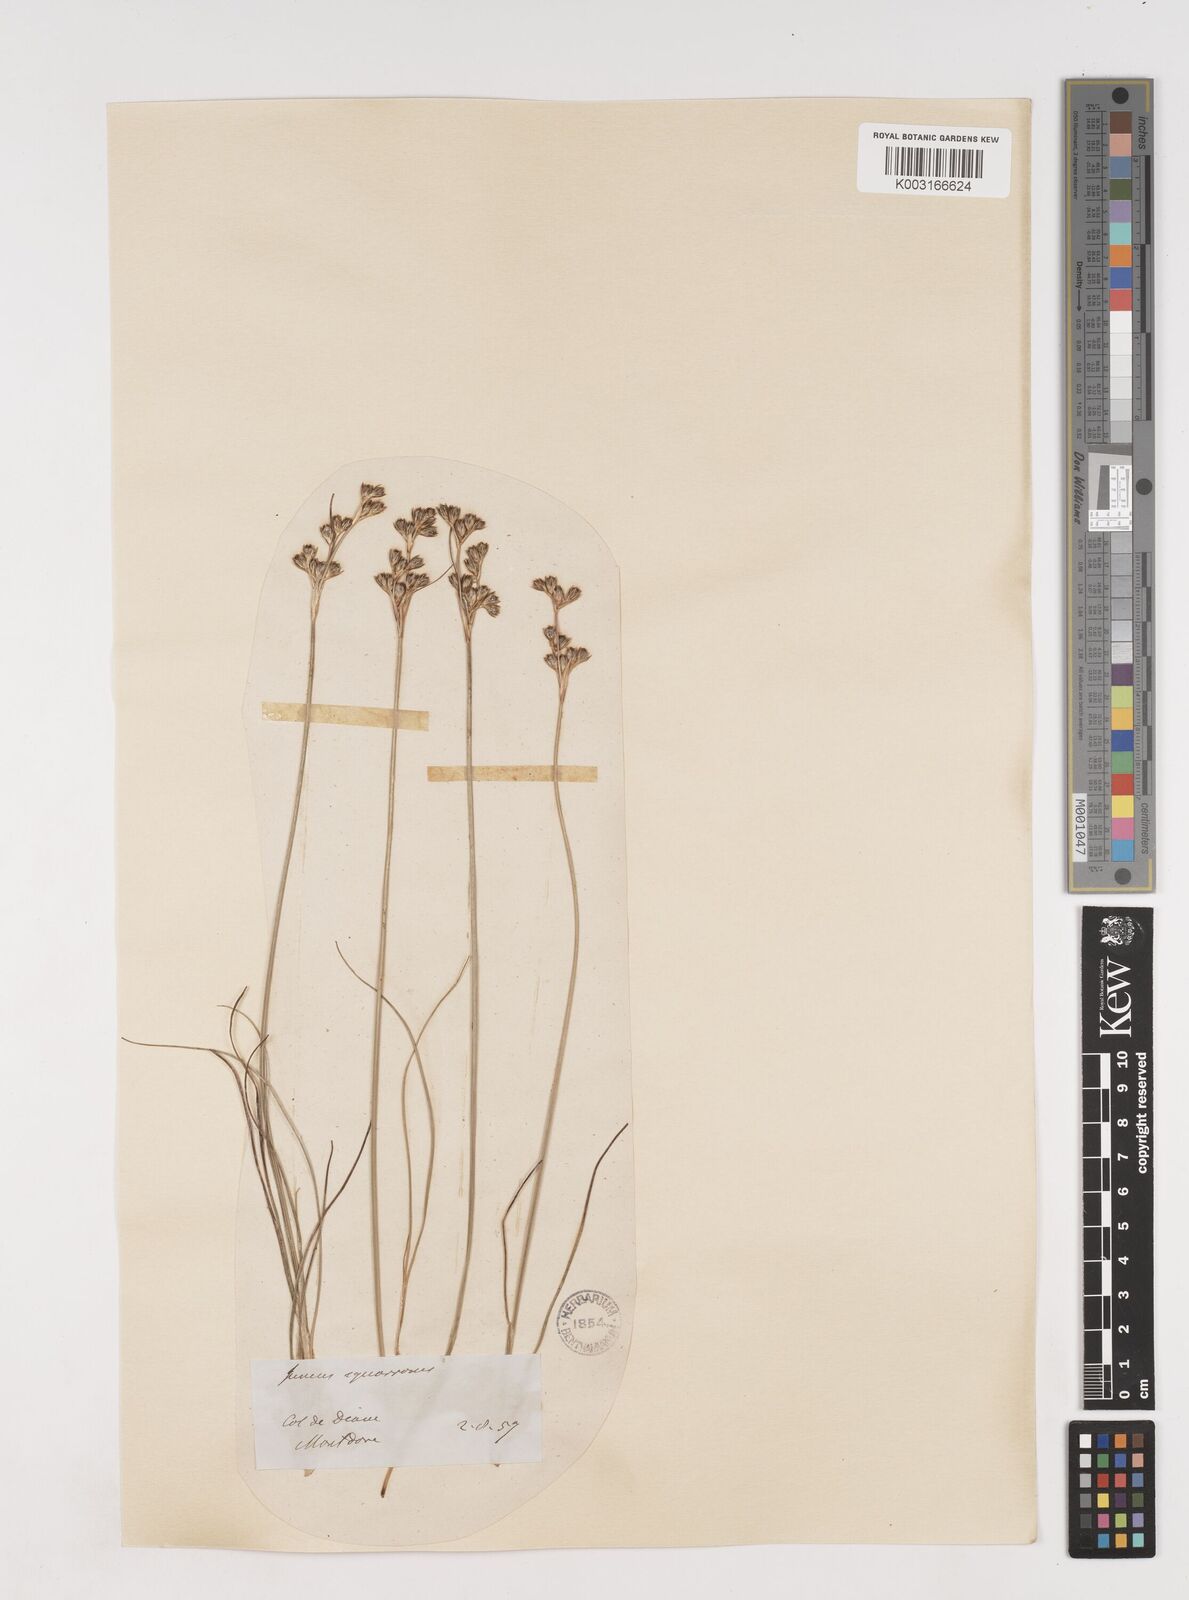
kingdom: Plantae
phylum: Tracheophyta
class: Liliopsida
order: Poales
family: Juncaceae
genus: Juncus
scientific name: Juncus squarrosus
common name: Heath rush
